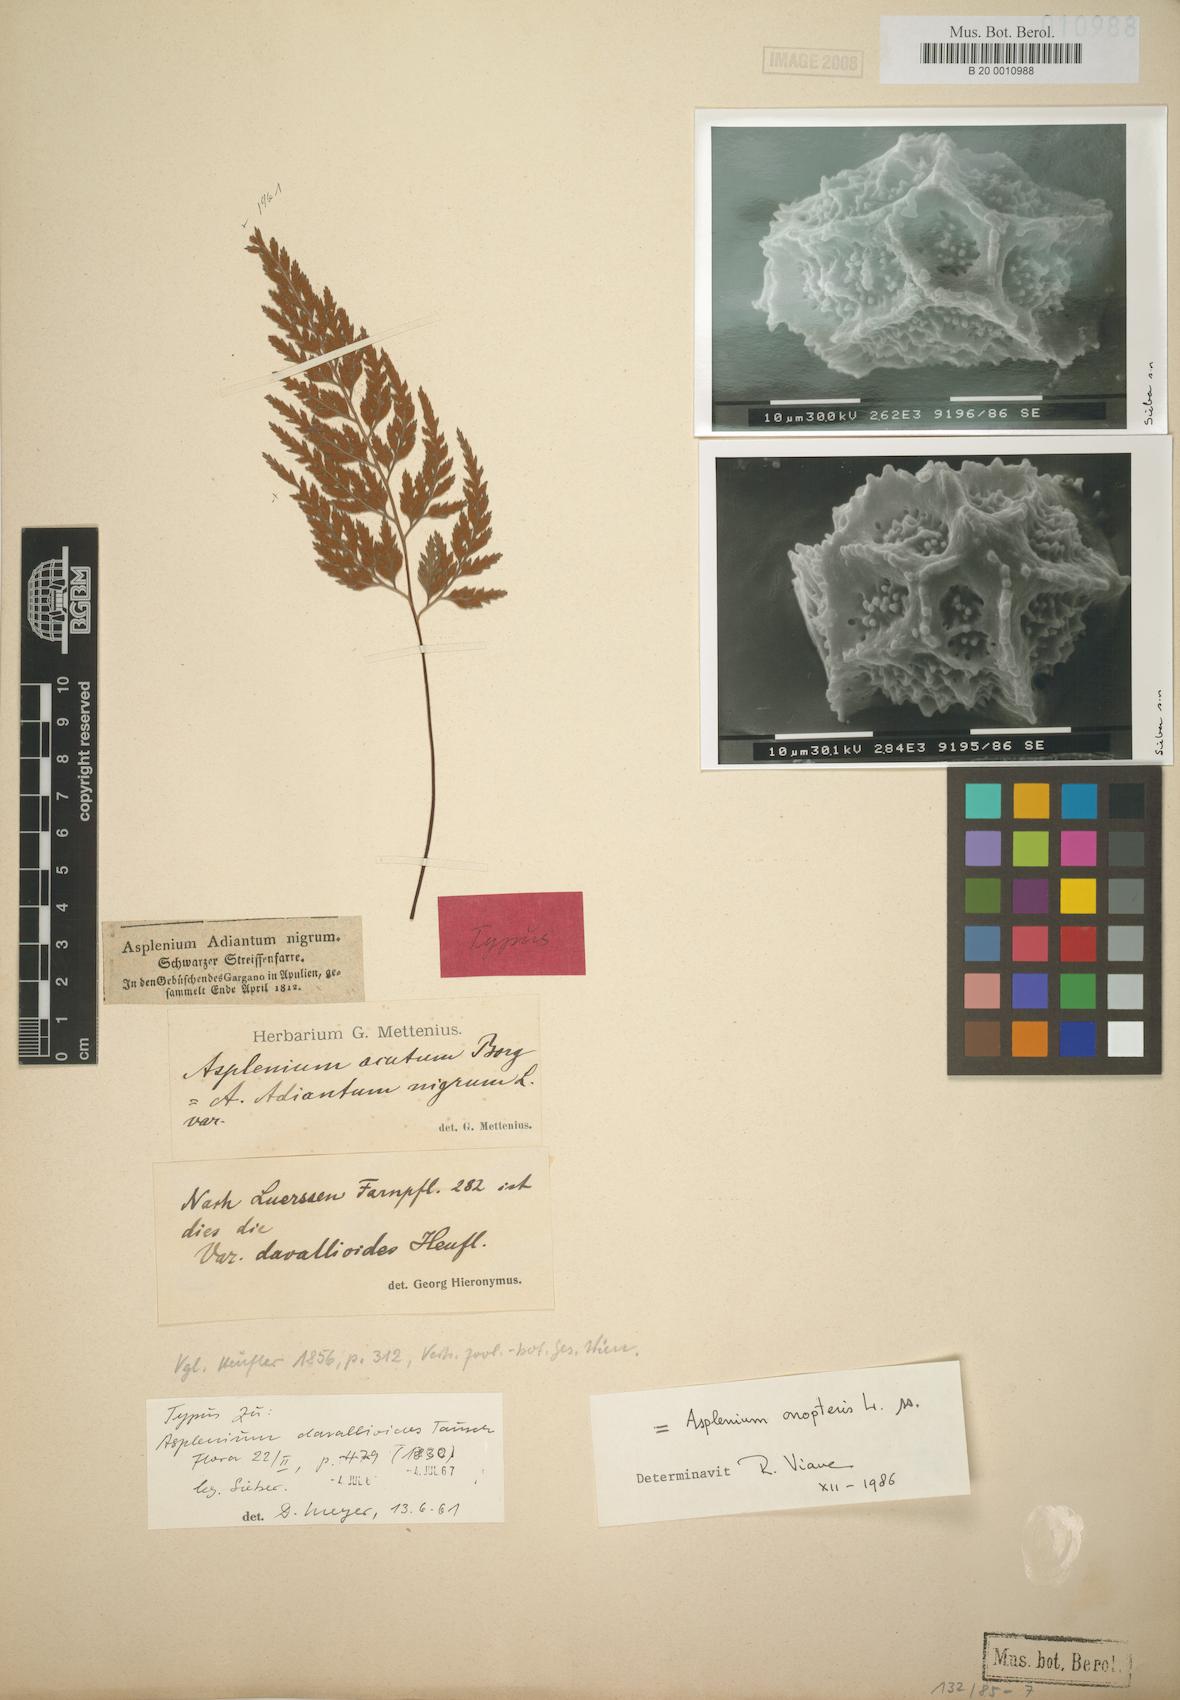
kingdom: Plantae
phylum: Tracheophyta
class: Polypodiopsida
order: Polypodiales
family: Aspleniaceae
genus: Asplenium
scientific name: Asplenium onopteris
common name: Irish spleenwort
